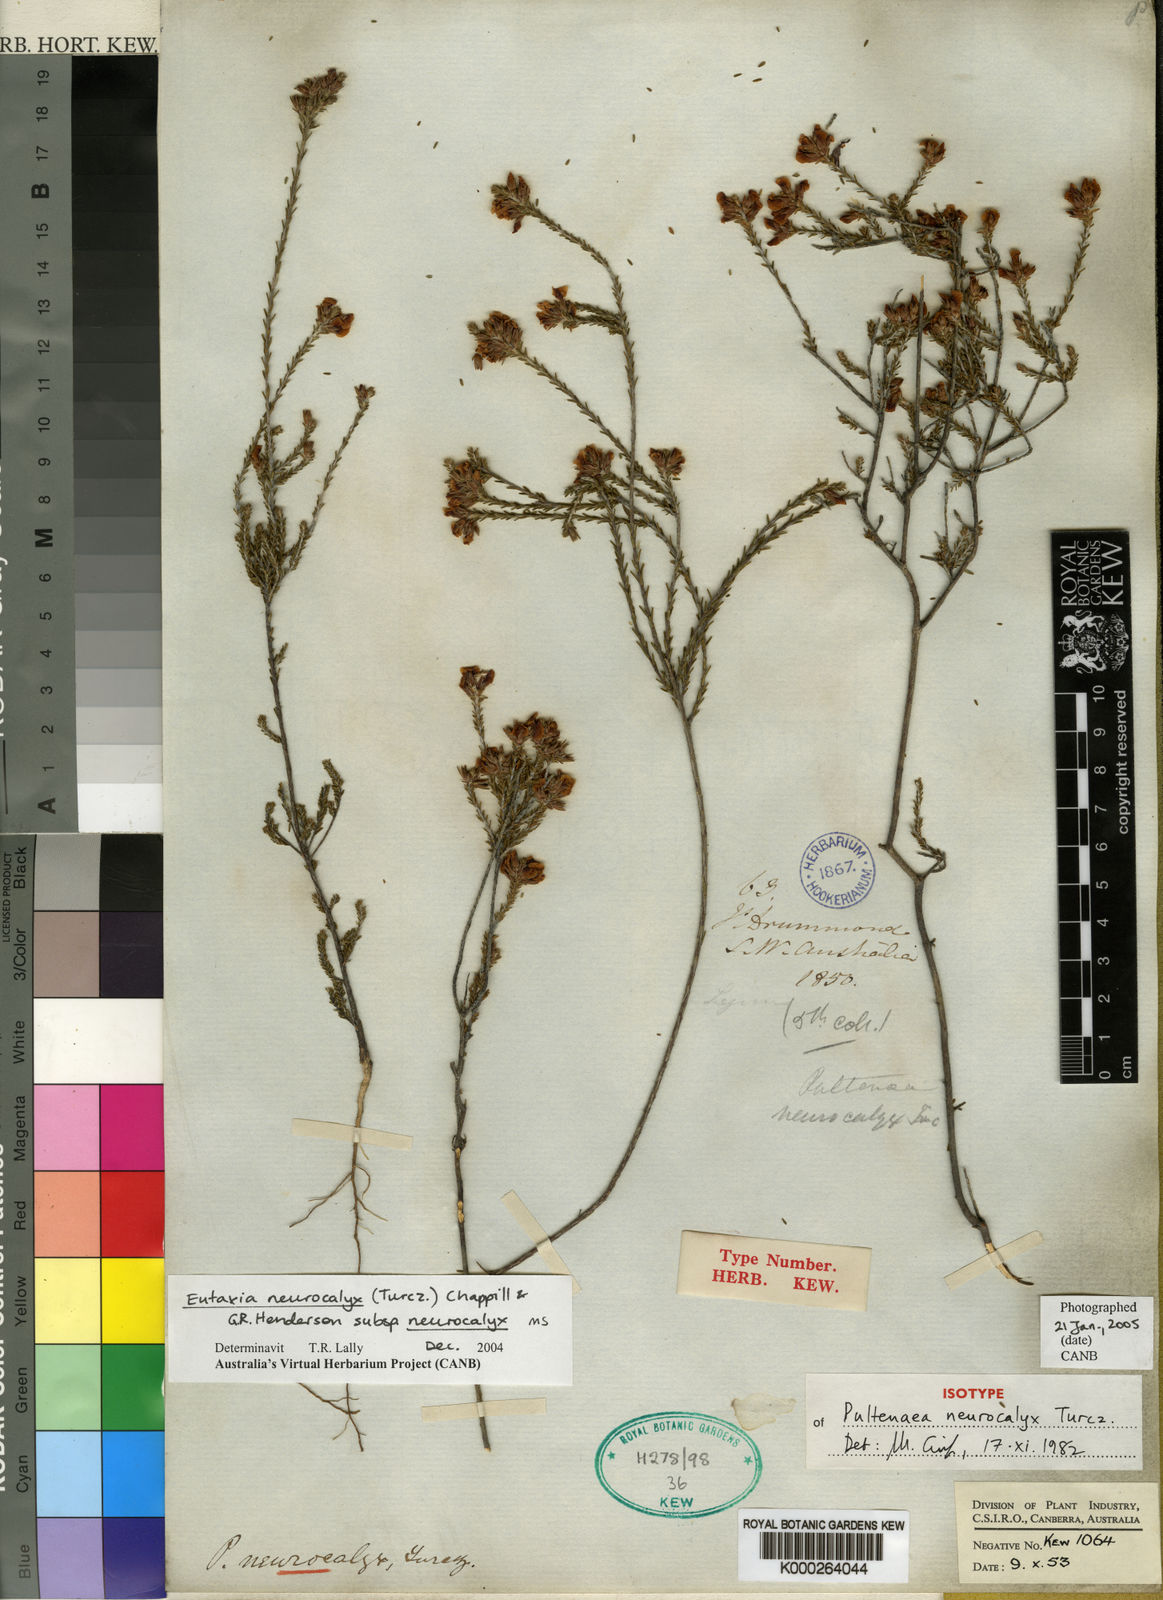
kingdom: Plantae
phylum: Tracheophyta
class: Magnoliopsida
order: Fabales
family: Fabaceae
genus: Eutaxia
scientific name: Eutaxia neurocalyx
